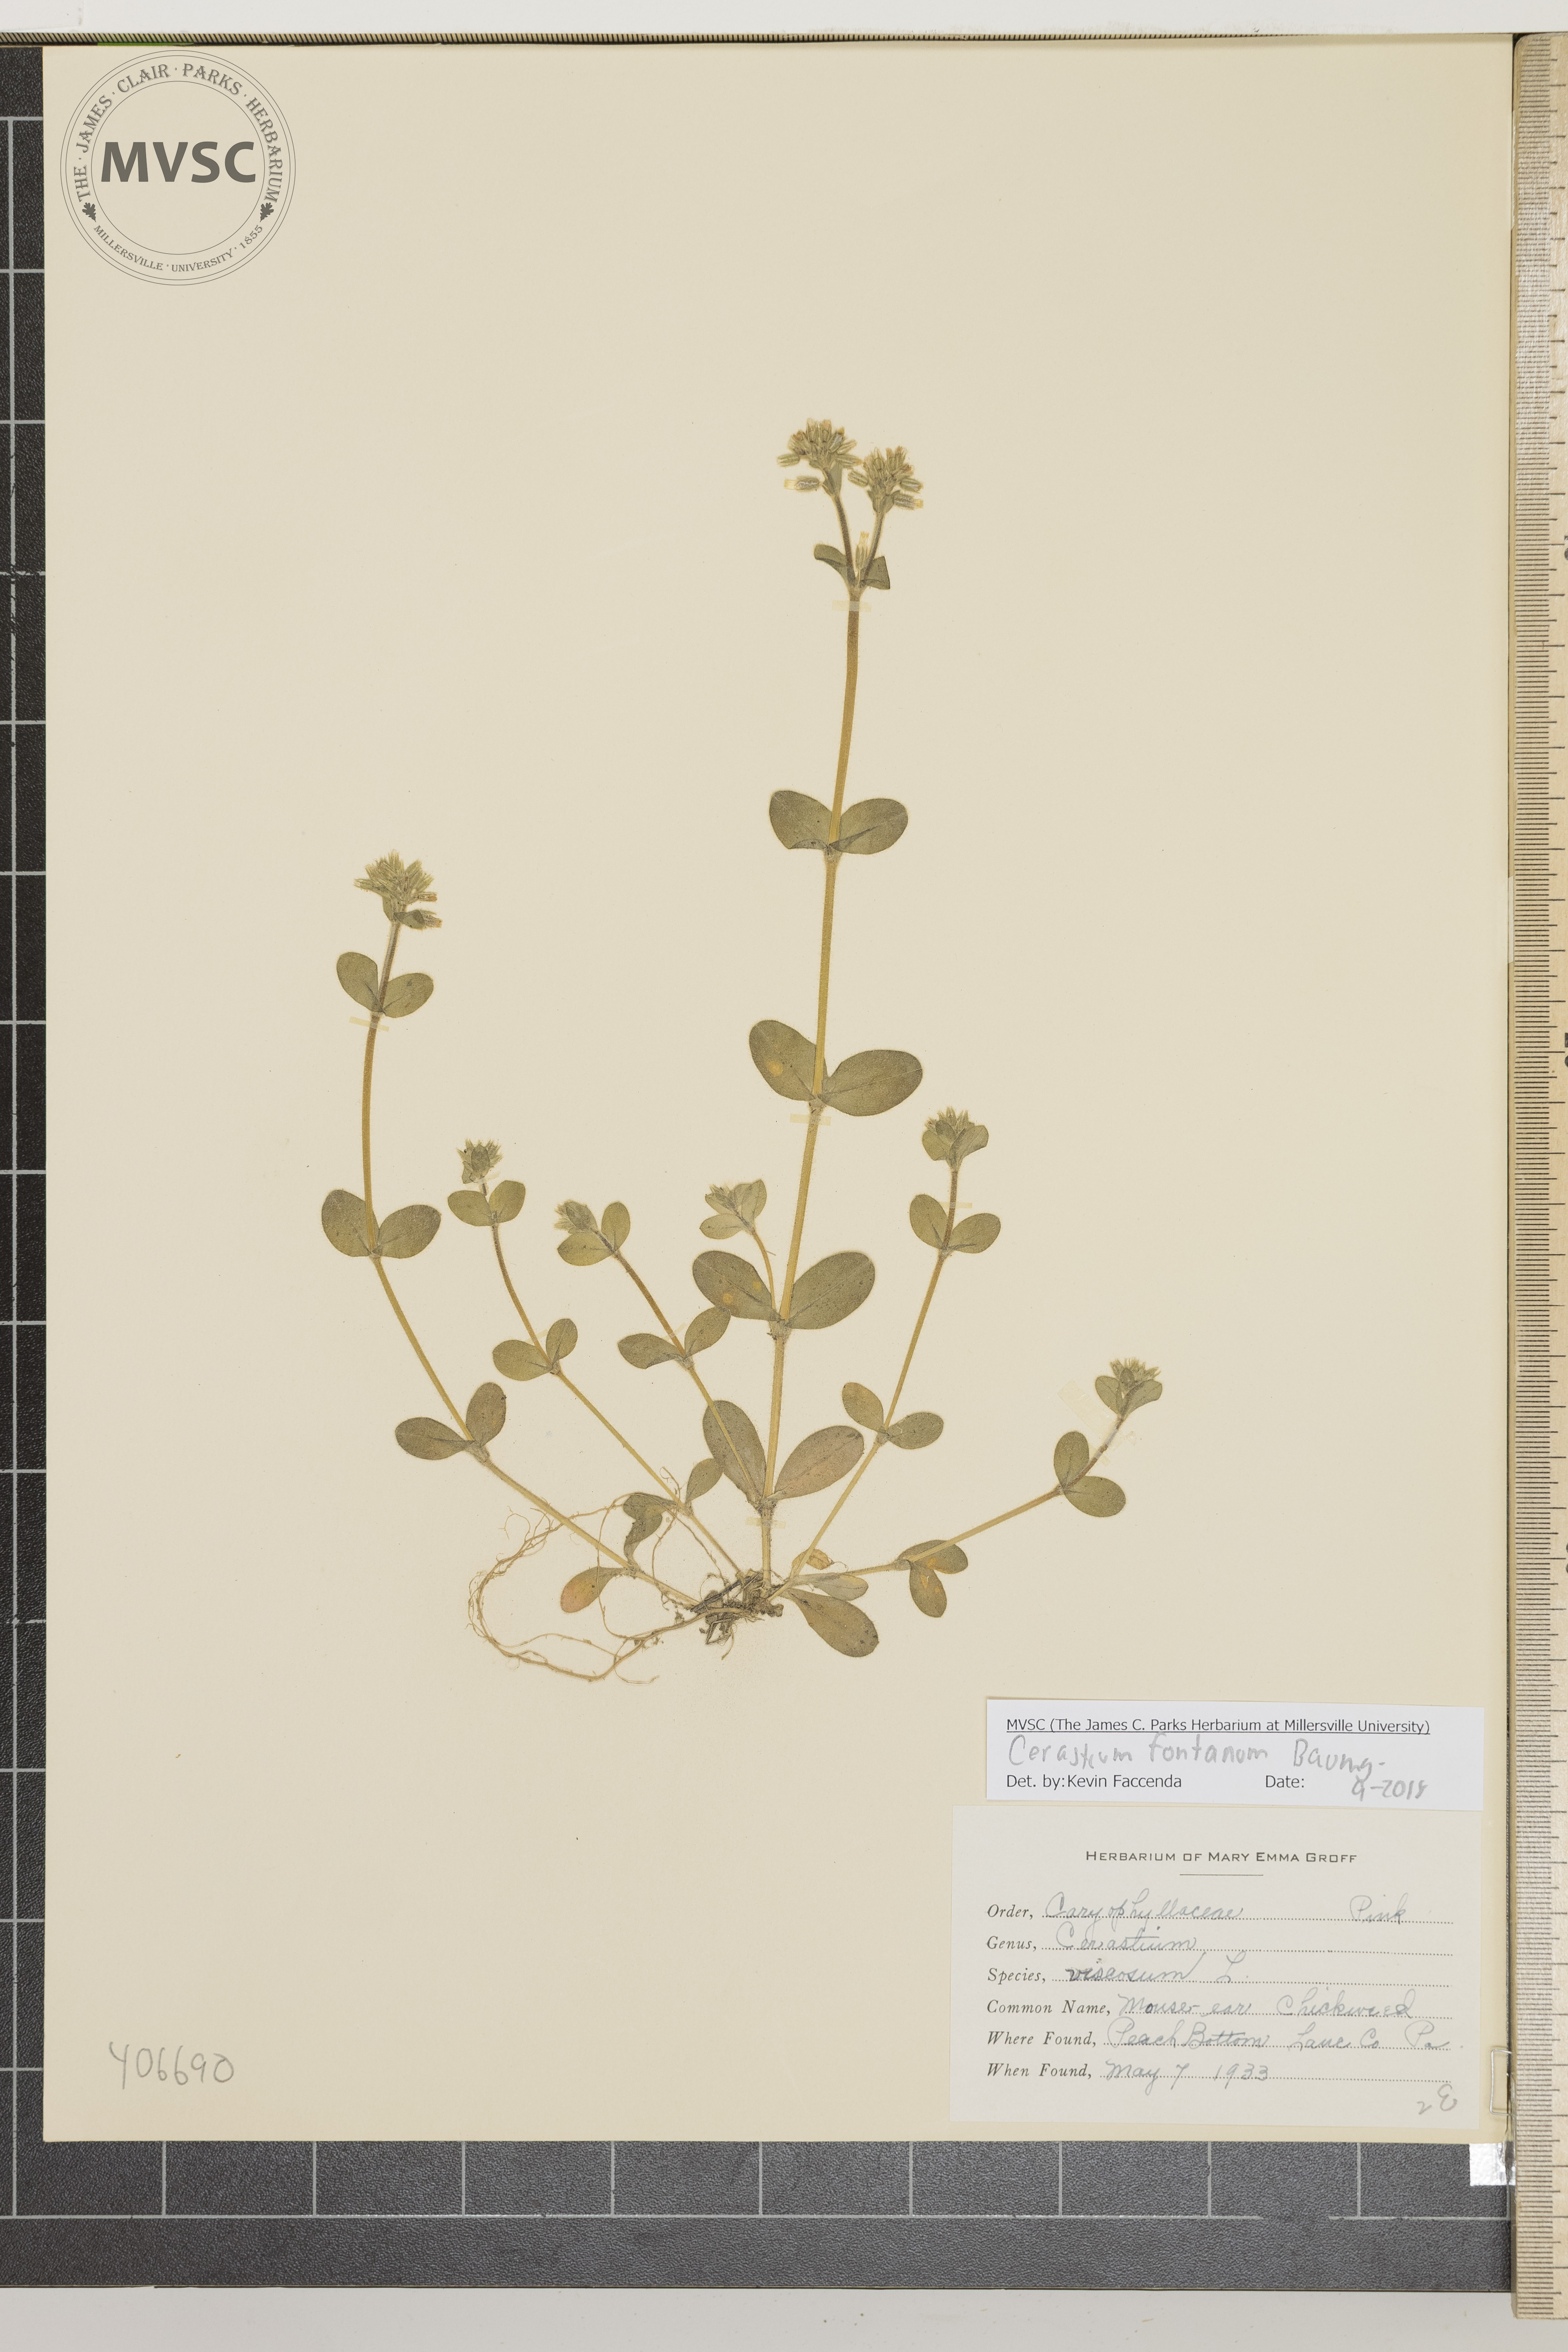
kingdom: Plantae
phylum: Tracheophyta
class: Magnoliopsida
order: Caryophyllales
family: Caryophyllaceae
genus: Cerastium
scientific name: Cerastium fontanum
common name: Mouse-ear Chickweed
